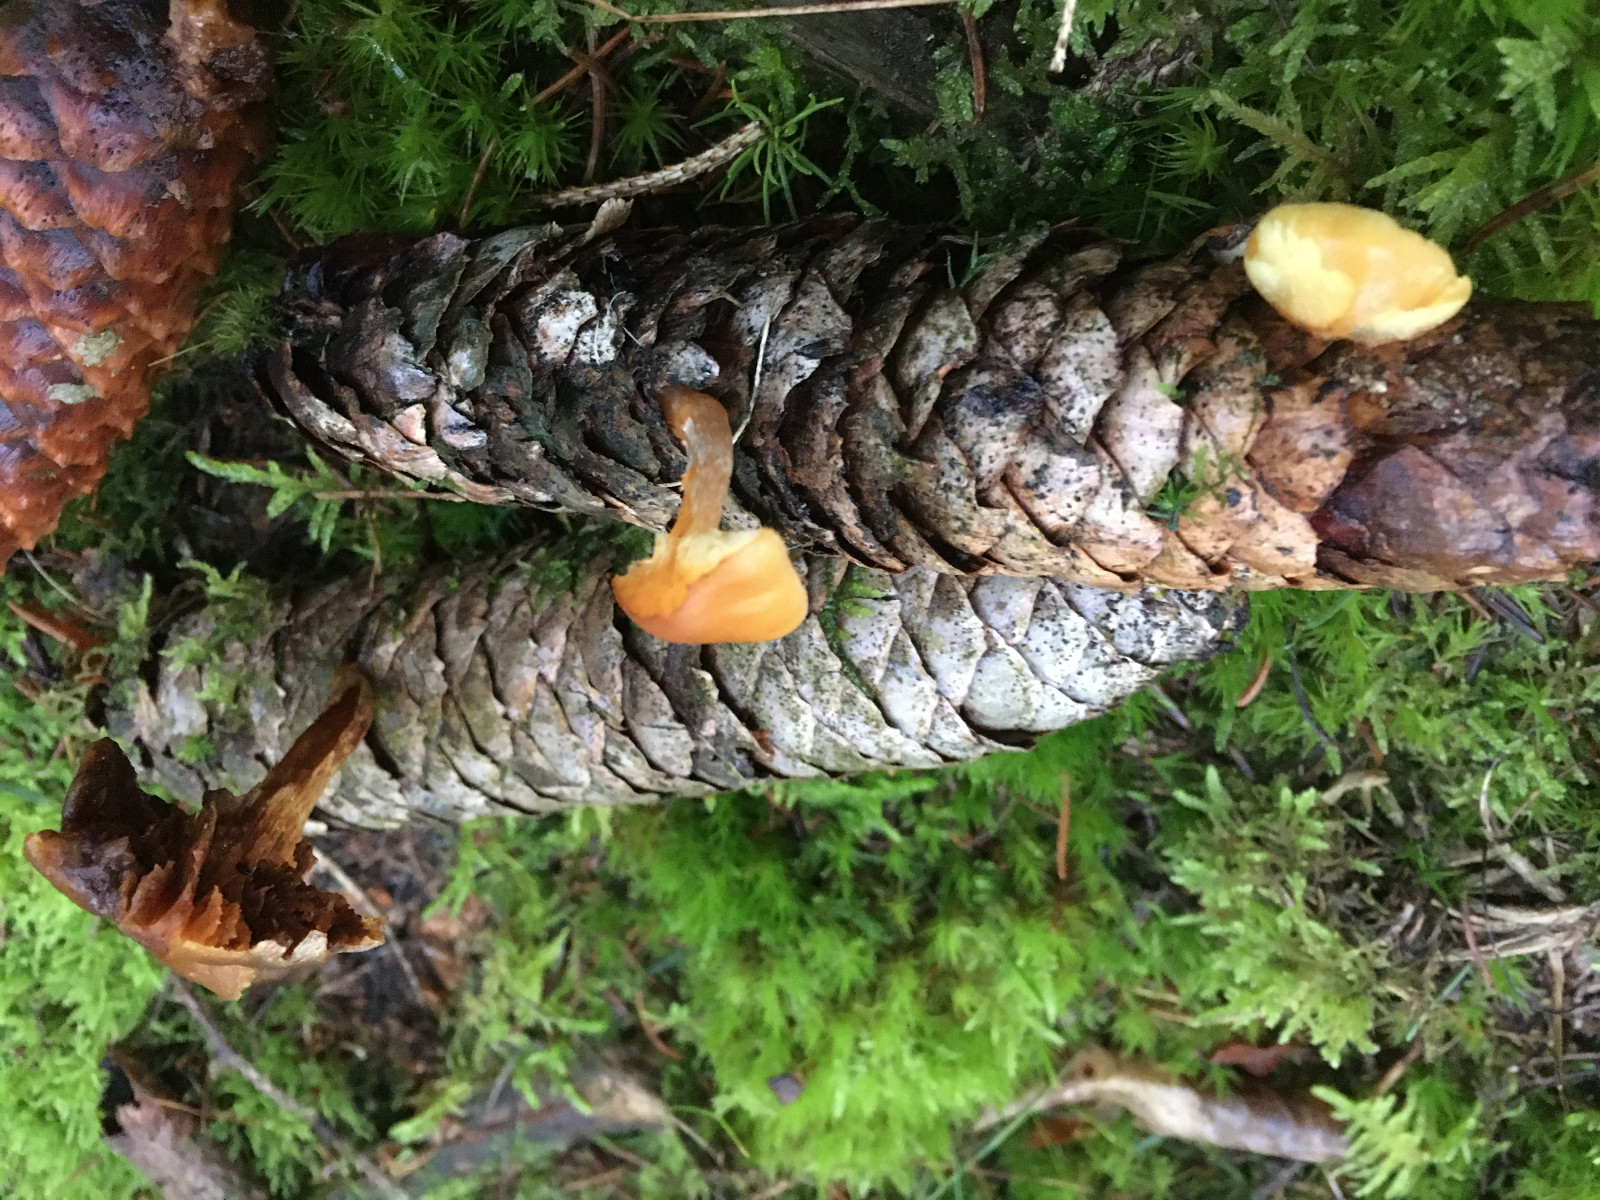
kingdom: Fungi
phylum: Basidiomycota
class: Agaricomycetes
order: Agaricales
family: Hymenogastraceae
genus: Gymnopilus
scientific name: Gymnopilus penetrans
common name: plettet flammehat
